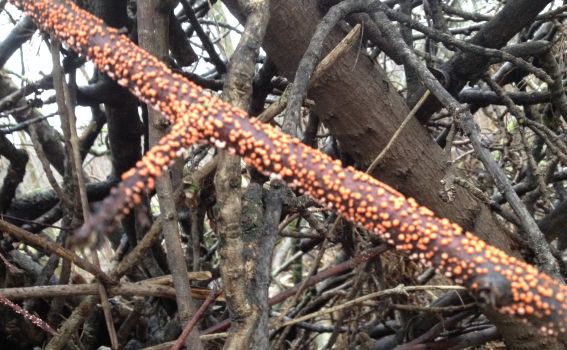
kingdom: Fungi
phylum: Ascomycota
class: Sordariomycetes
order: Hypocreales
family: Nectriaceae
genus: Nectria
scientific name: Nectria cinnabarina
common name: almindelig cinnobersvamp
